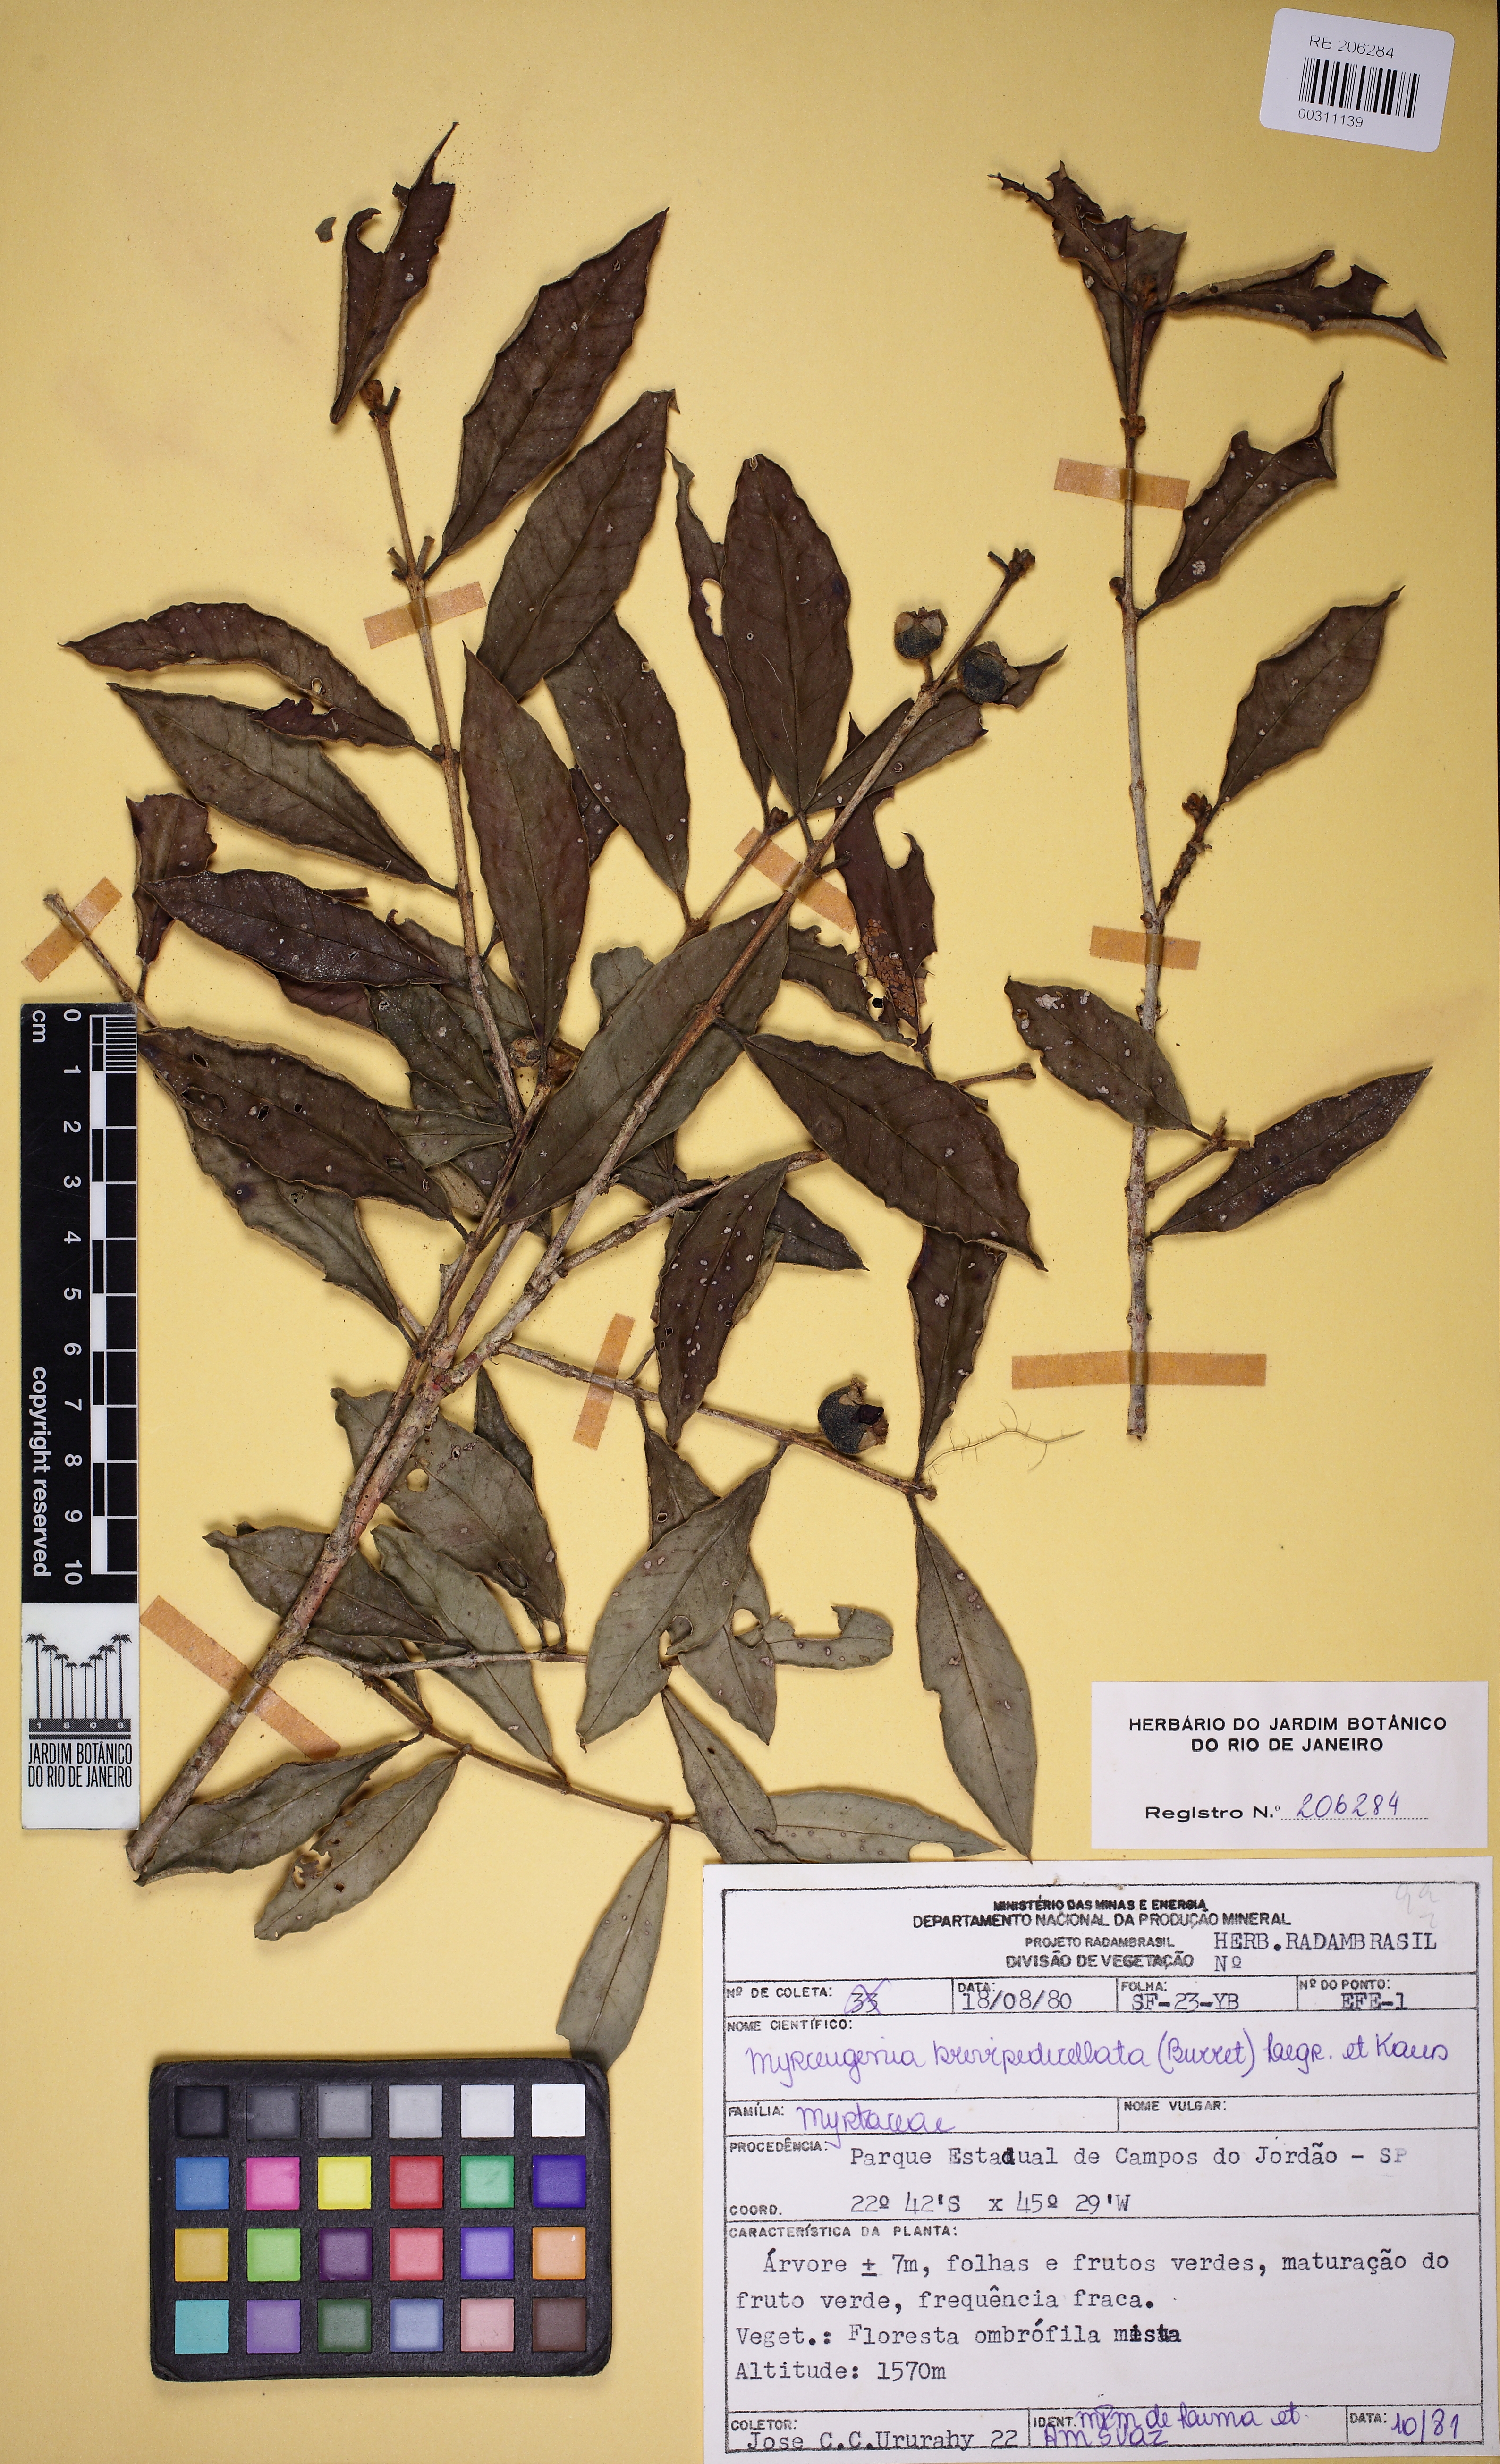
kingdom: Plantae
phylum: Tracheophyta
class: Magnoliopsida
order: Myrtales
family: Myrtaceae
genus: Myrceugenia
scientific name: Myrceugenia miersiana
